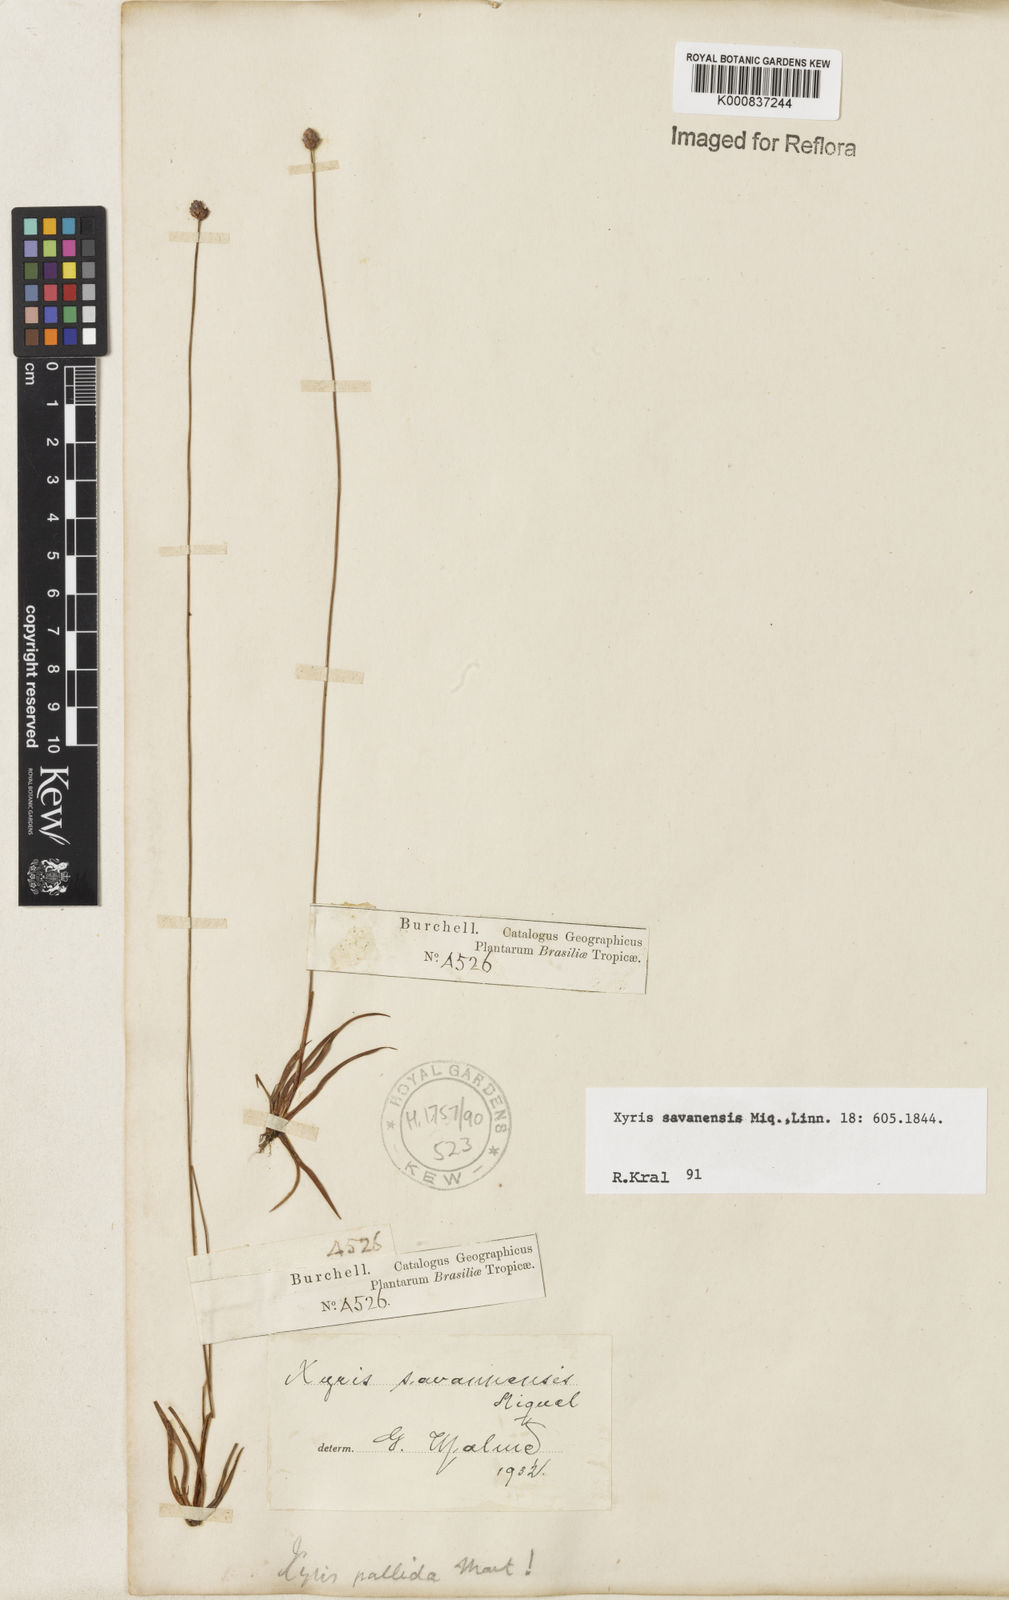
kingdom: Plantae
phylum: Tracheophyta
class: Liliopsida
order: Poales
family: Xyridaceae
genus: Xyris
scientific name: Xyris savanensis
